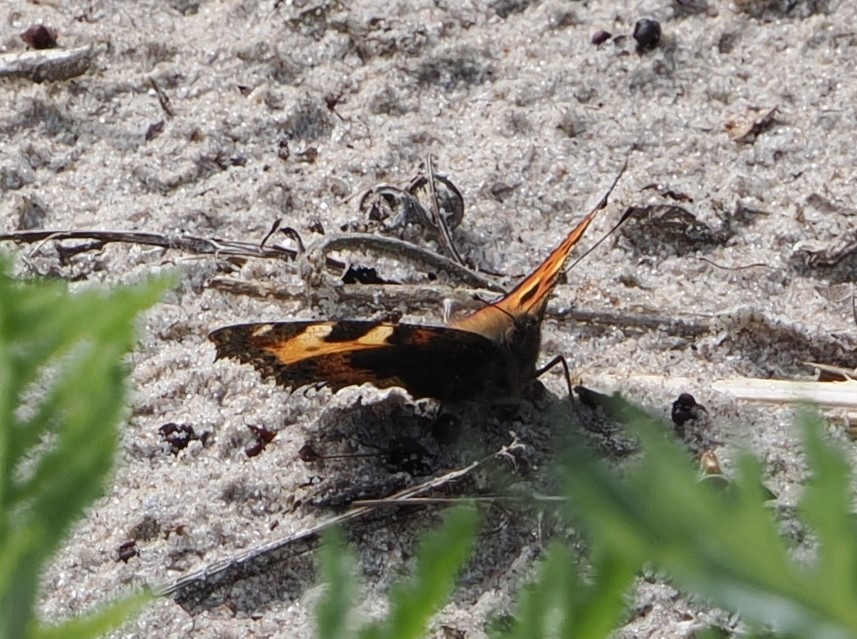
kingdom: Animalia
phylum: Arthropoda
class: Insecta
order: Lepidoptera
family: Nymphalidae
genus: Aglais
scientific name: Aglais urticae
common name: Nældens takvinge
